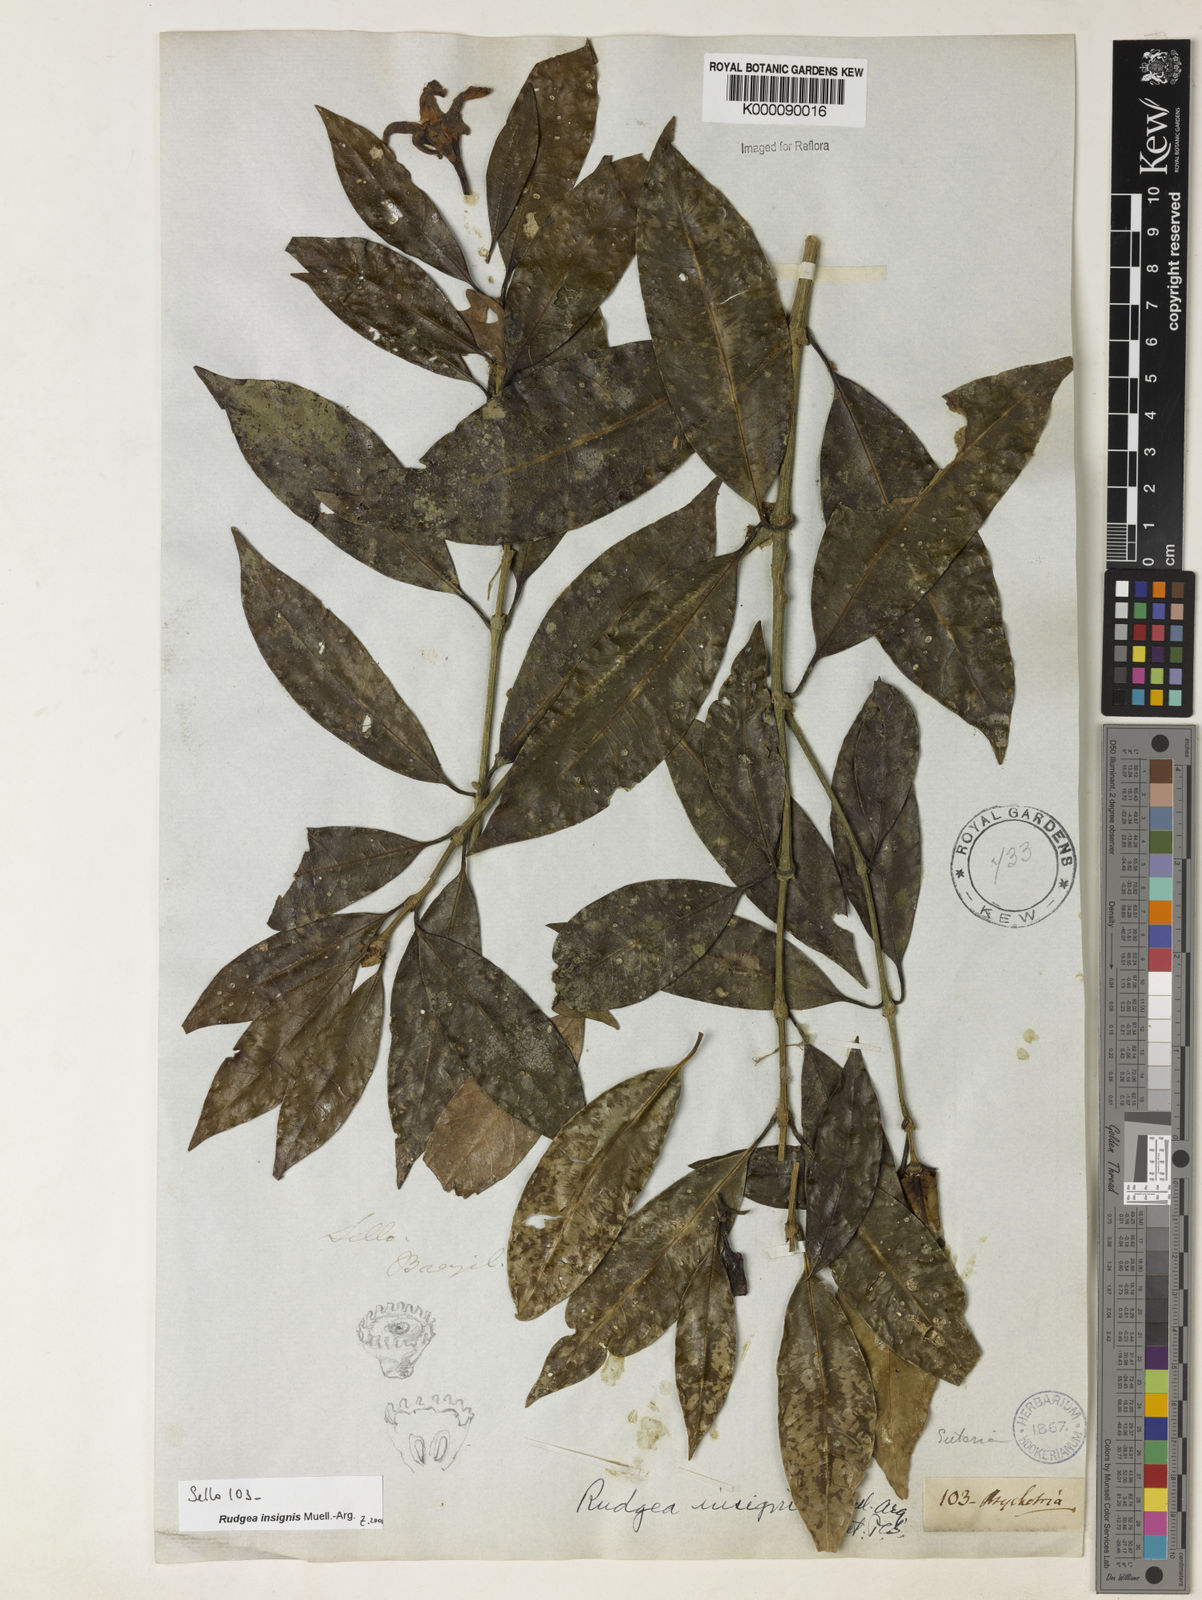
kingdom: Plantae
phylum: Tracheophyta
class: Magnoliopsida
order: Gentianales
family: Rubiaceae
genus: Rudgea
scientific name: Rudgea insignis
